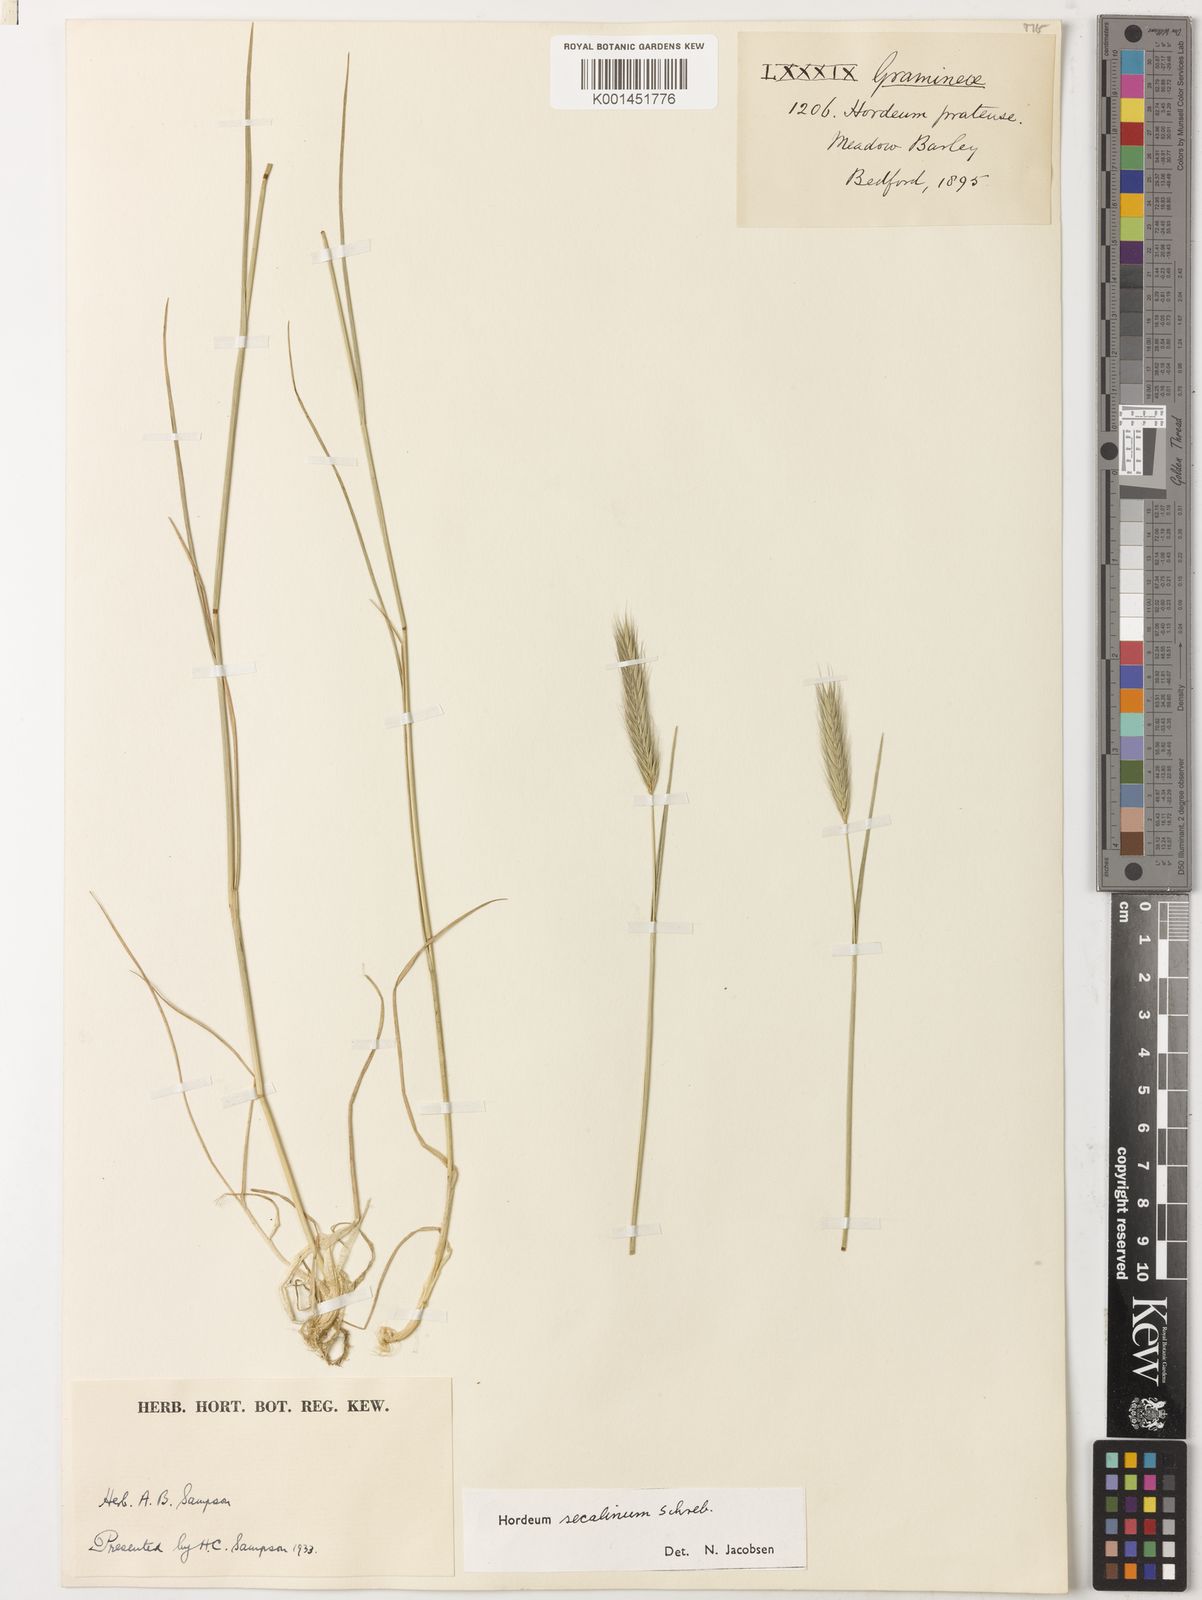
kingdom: Plantae
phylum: Tracheophyta
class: Liliopsida
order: Poales
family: Poaceae
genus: Hordeum
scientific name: Hordeum secalinum
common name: Meadow barley
